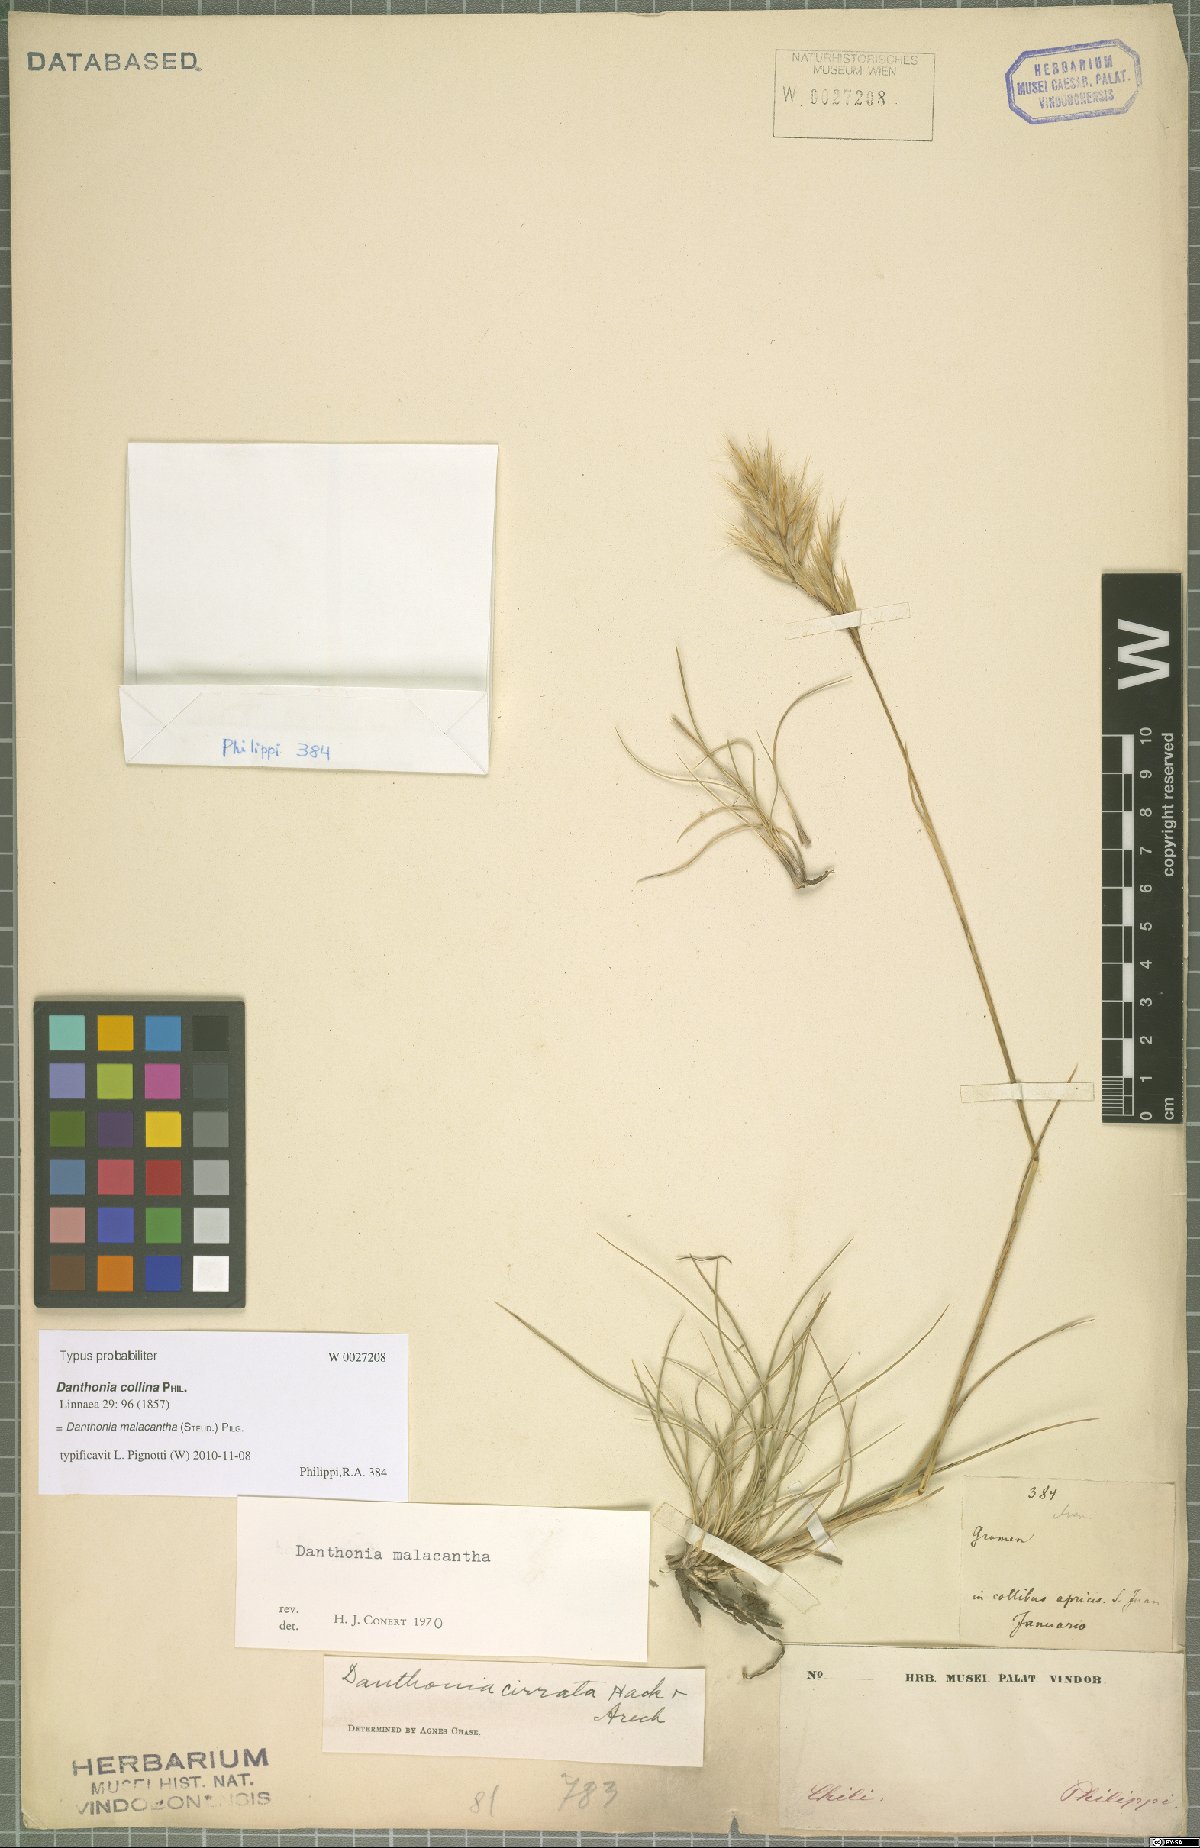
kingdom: Plantae
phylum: Tracheophyta
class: Liliopsida
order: Poales
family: Poaceae
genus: Danthonia
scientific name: Danthonia malacantha
